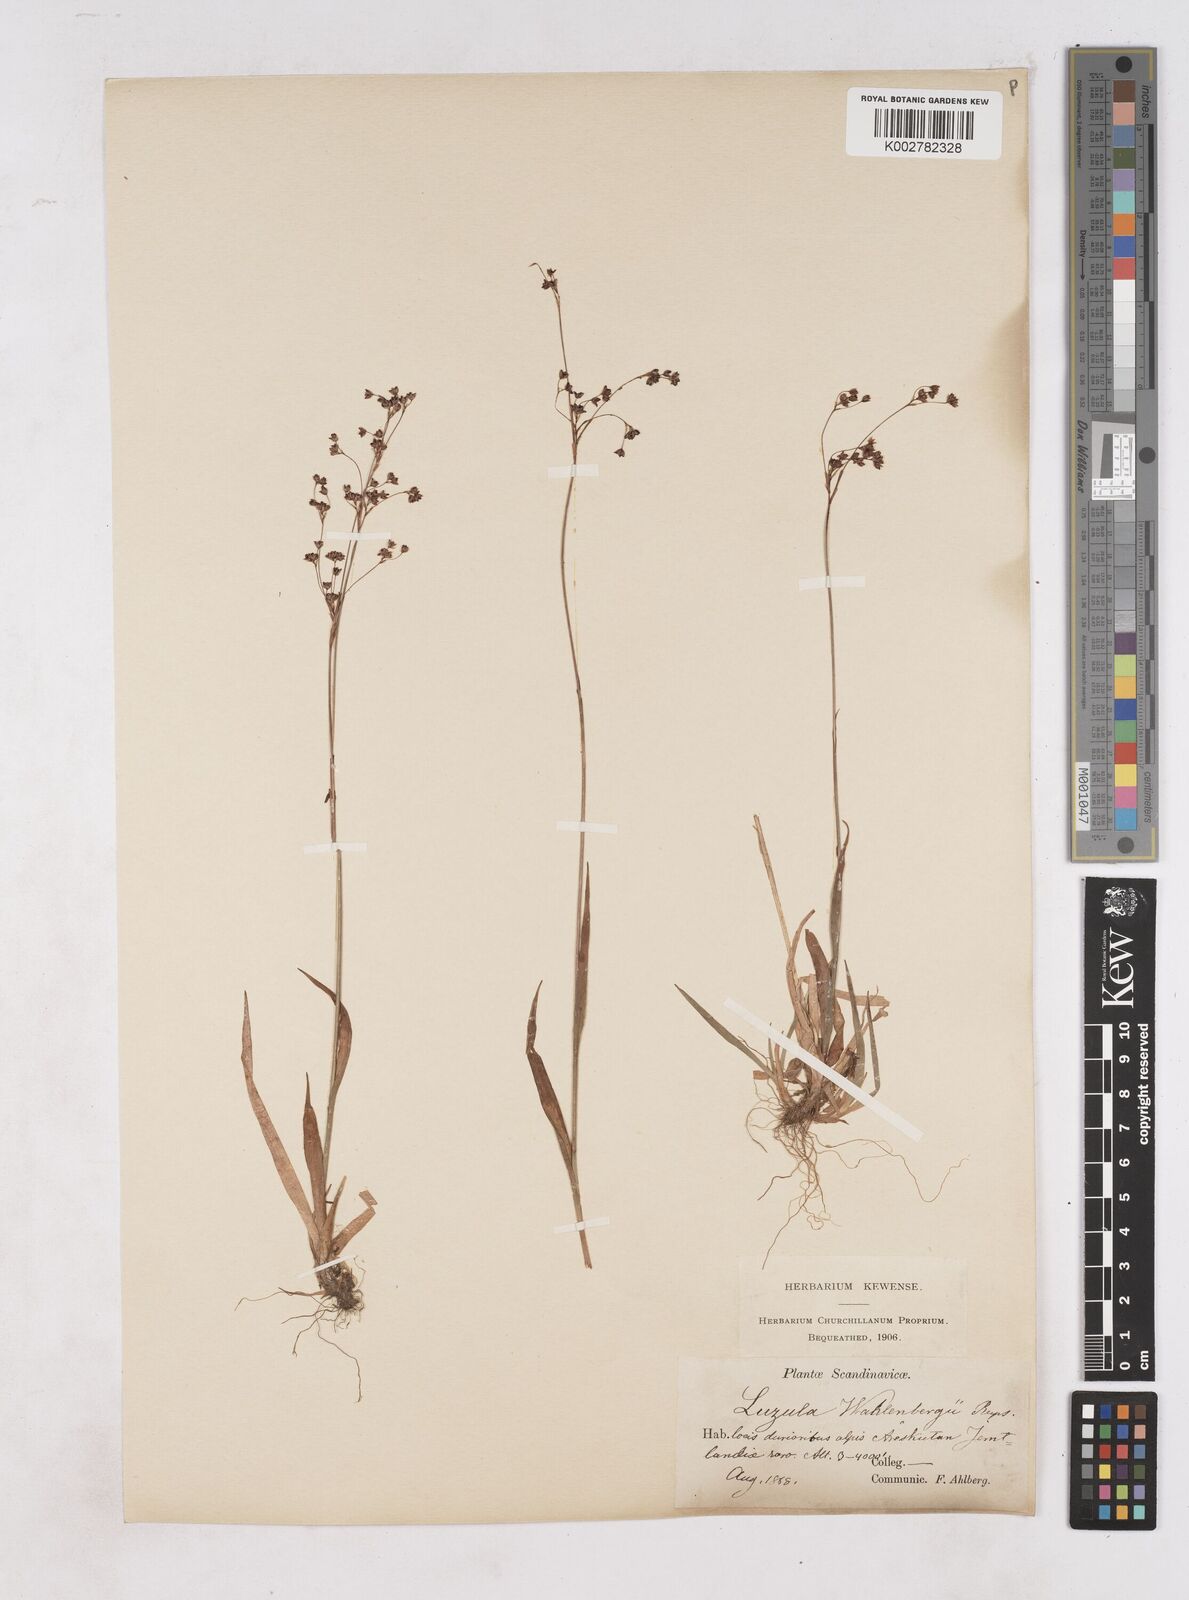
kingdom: Plantae
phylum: Tracheophyta
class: Liliopsida
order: Poales
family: Juncaceae
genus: Luzula
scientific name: Luzula alpinopilosa
